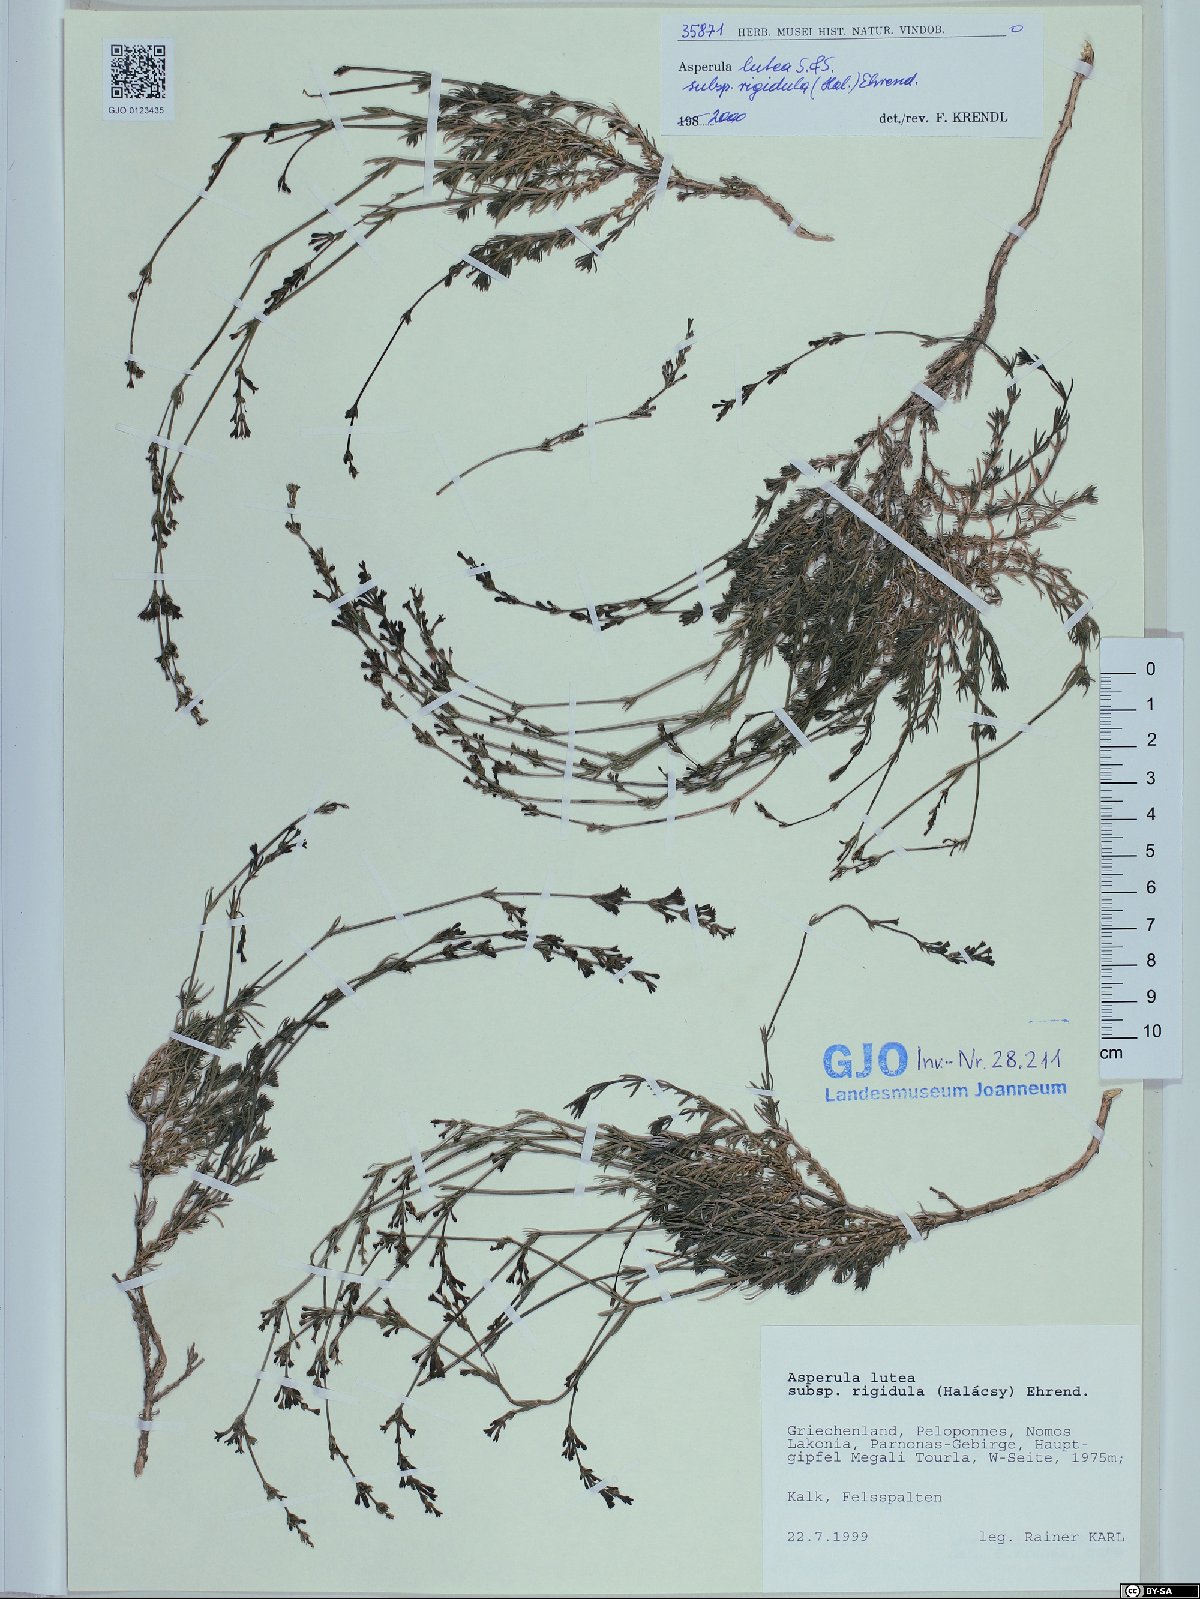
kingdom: Plantae
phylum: Tracheophyta
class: Magnoliopsida
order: Gentianales
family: Rubiaceae
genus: Cynanchica
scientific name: Cynanchica rigidula
